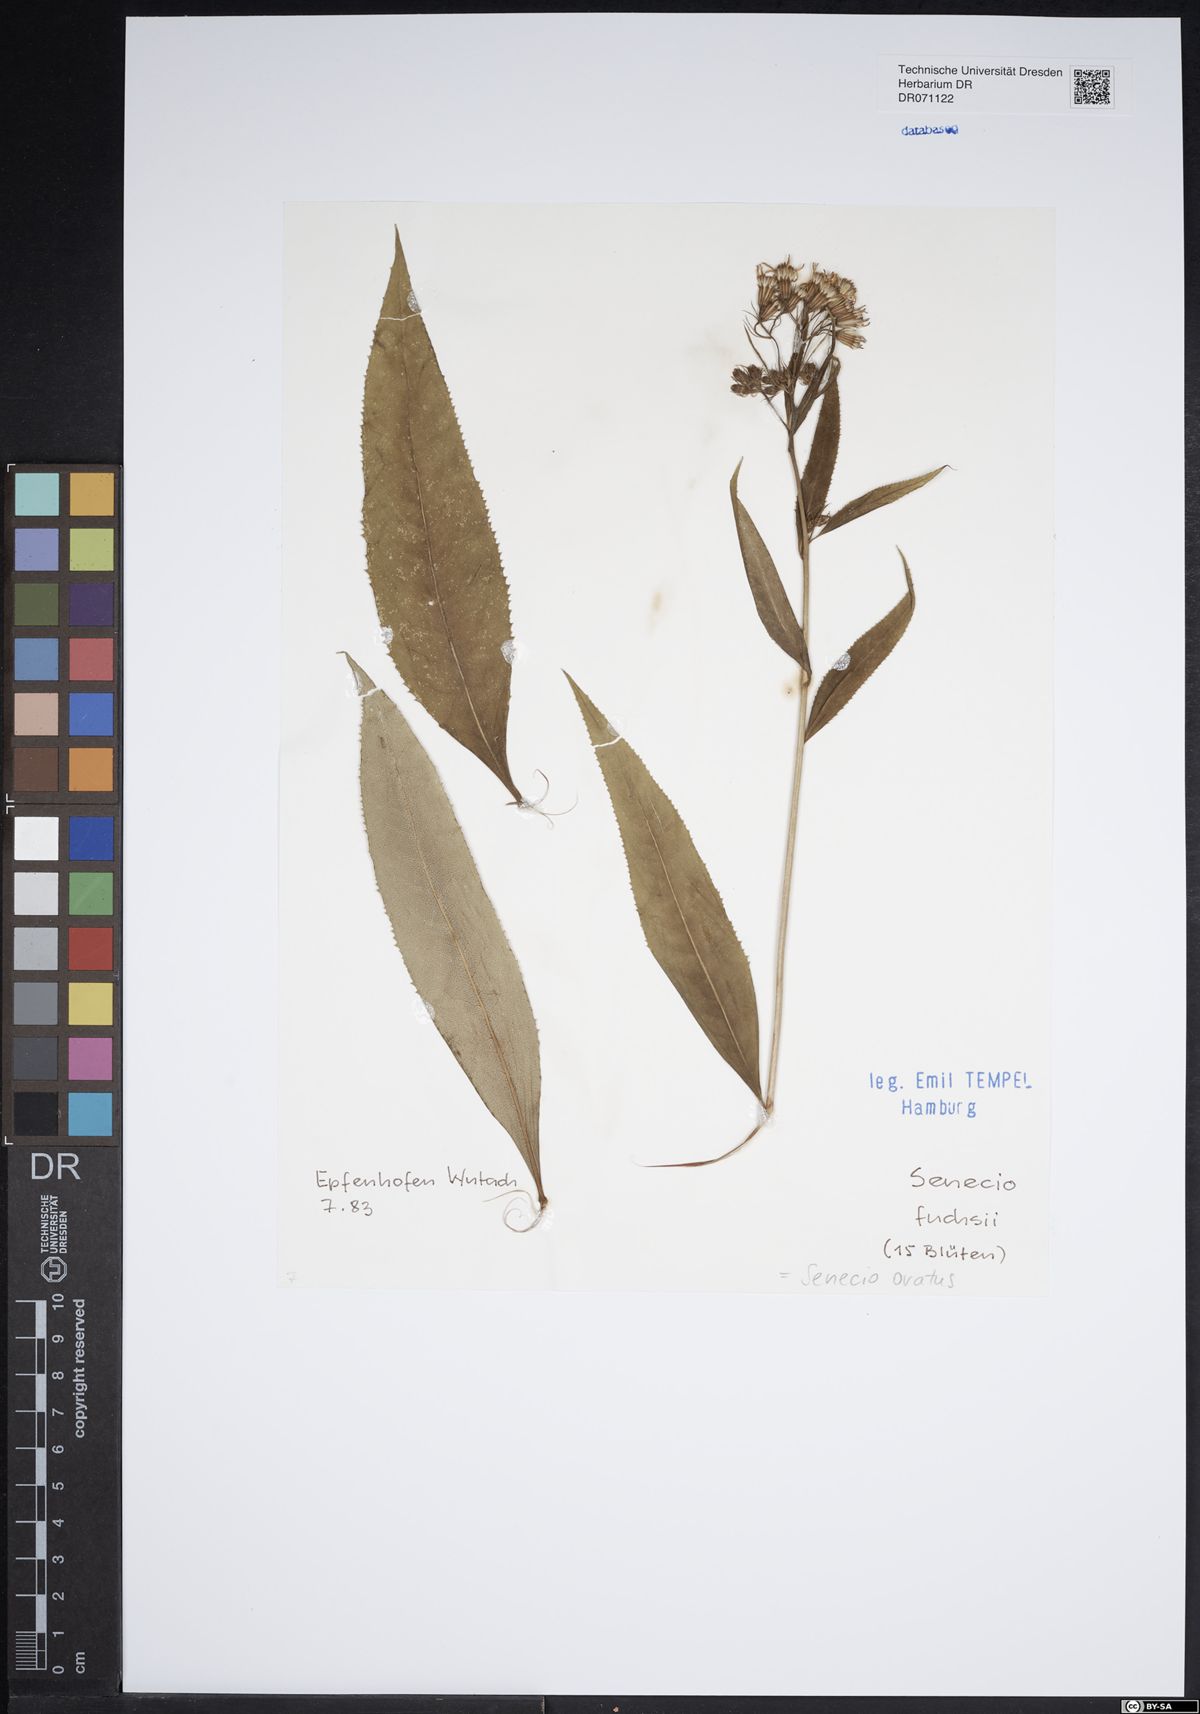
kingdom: Plantae
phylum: Tracheophyta
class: Magnoliopsida
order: Asterales
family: Asteraceae
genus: Senecio
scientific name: Senecio ovatus
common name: Wood ragwort
